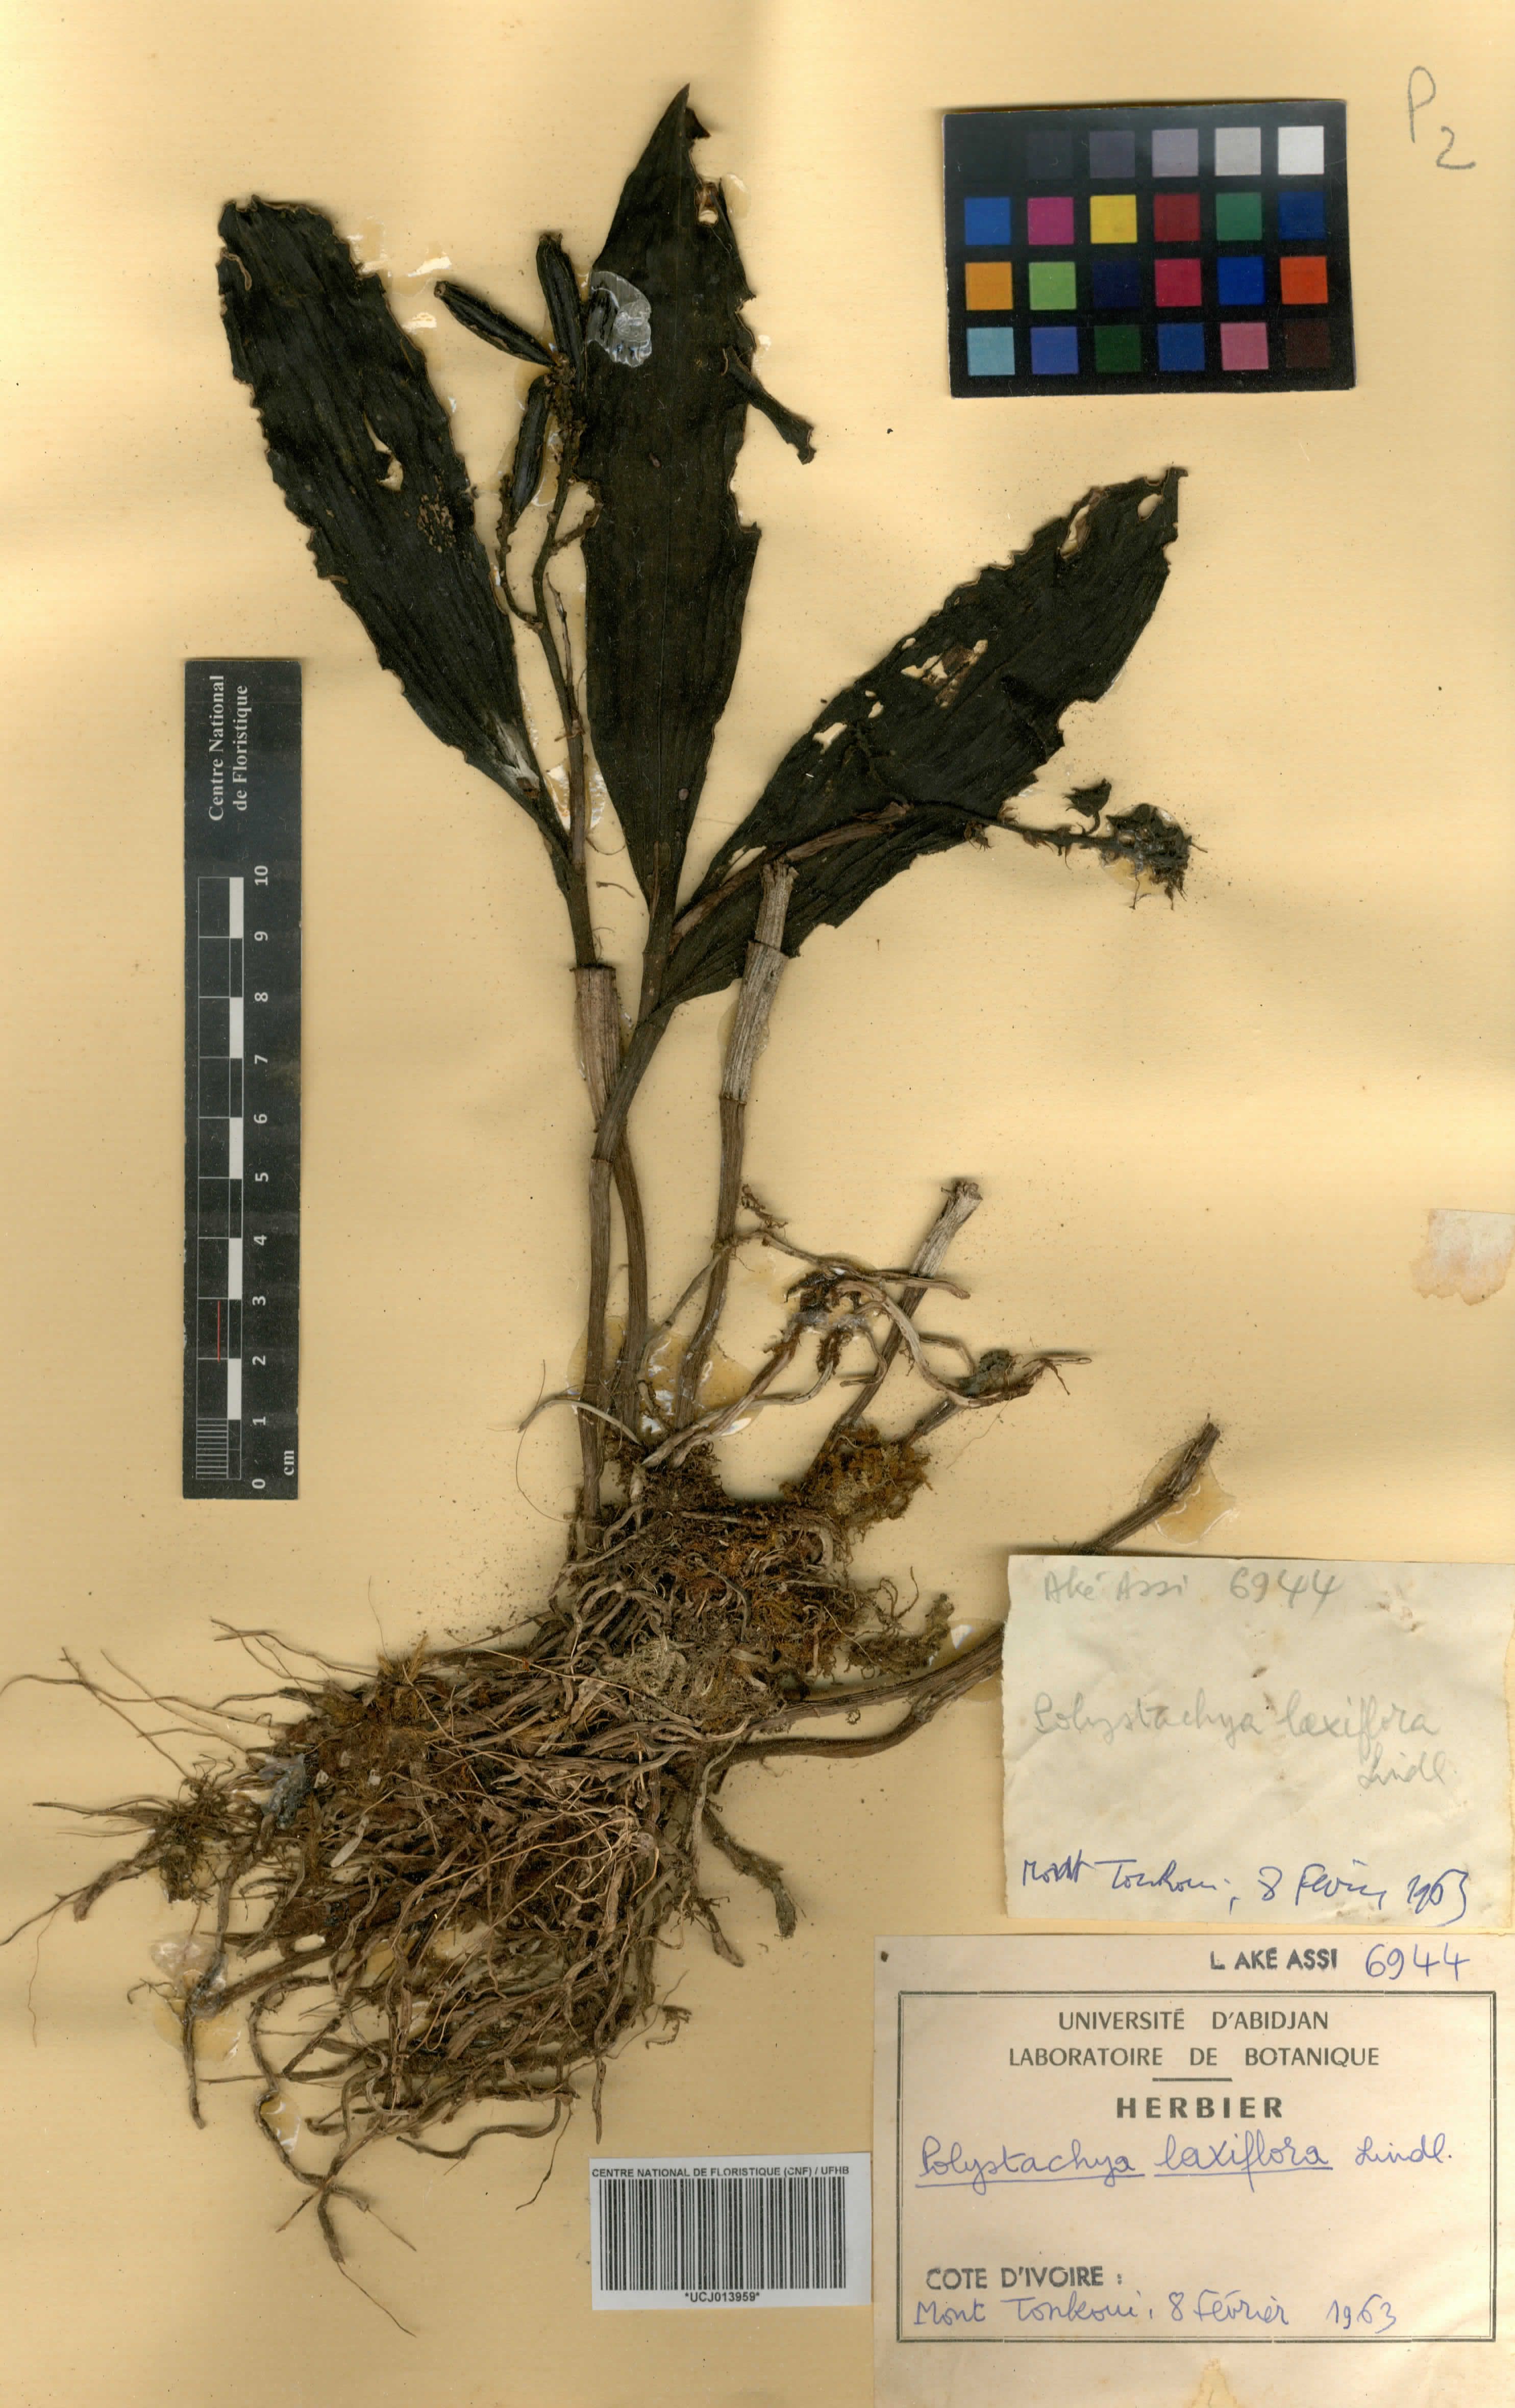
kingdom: Plantae
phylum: Tracheophyta
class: Liliopsida
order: Asparagales
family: Orchidaceae
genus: Polystachya
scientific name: Polystachya laxiflora
